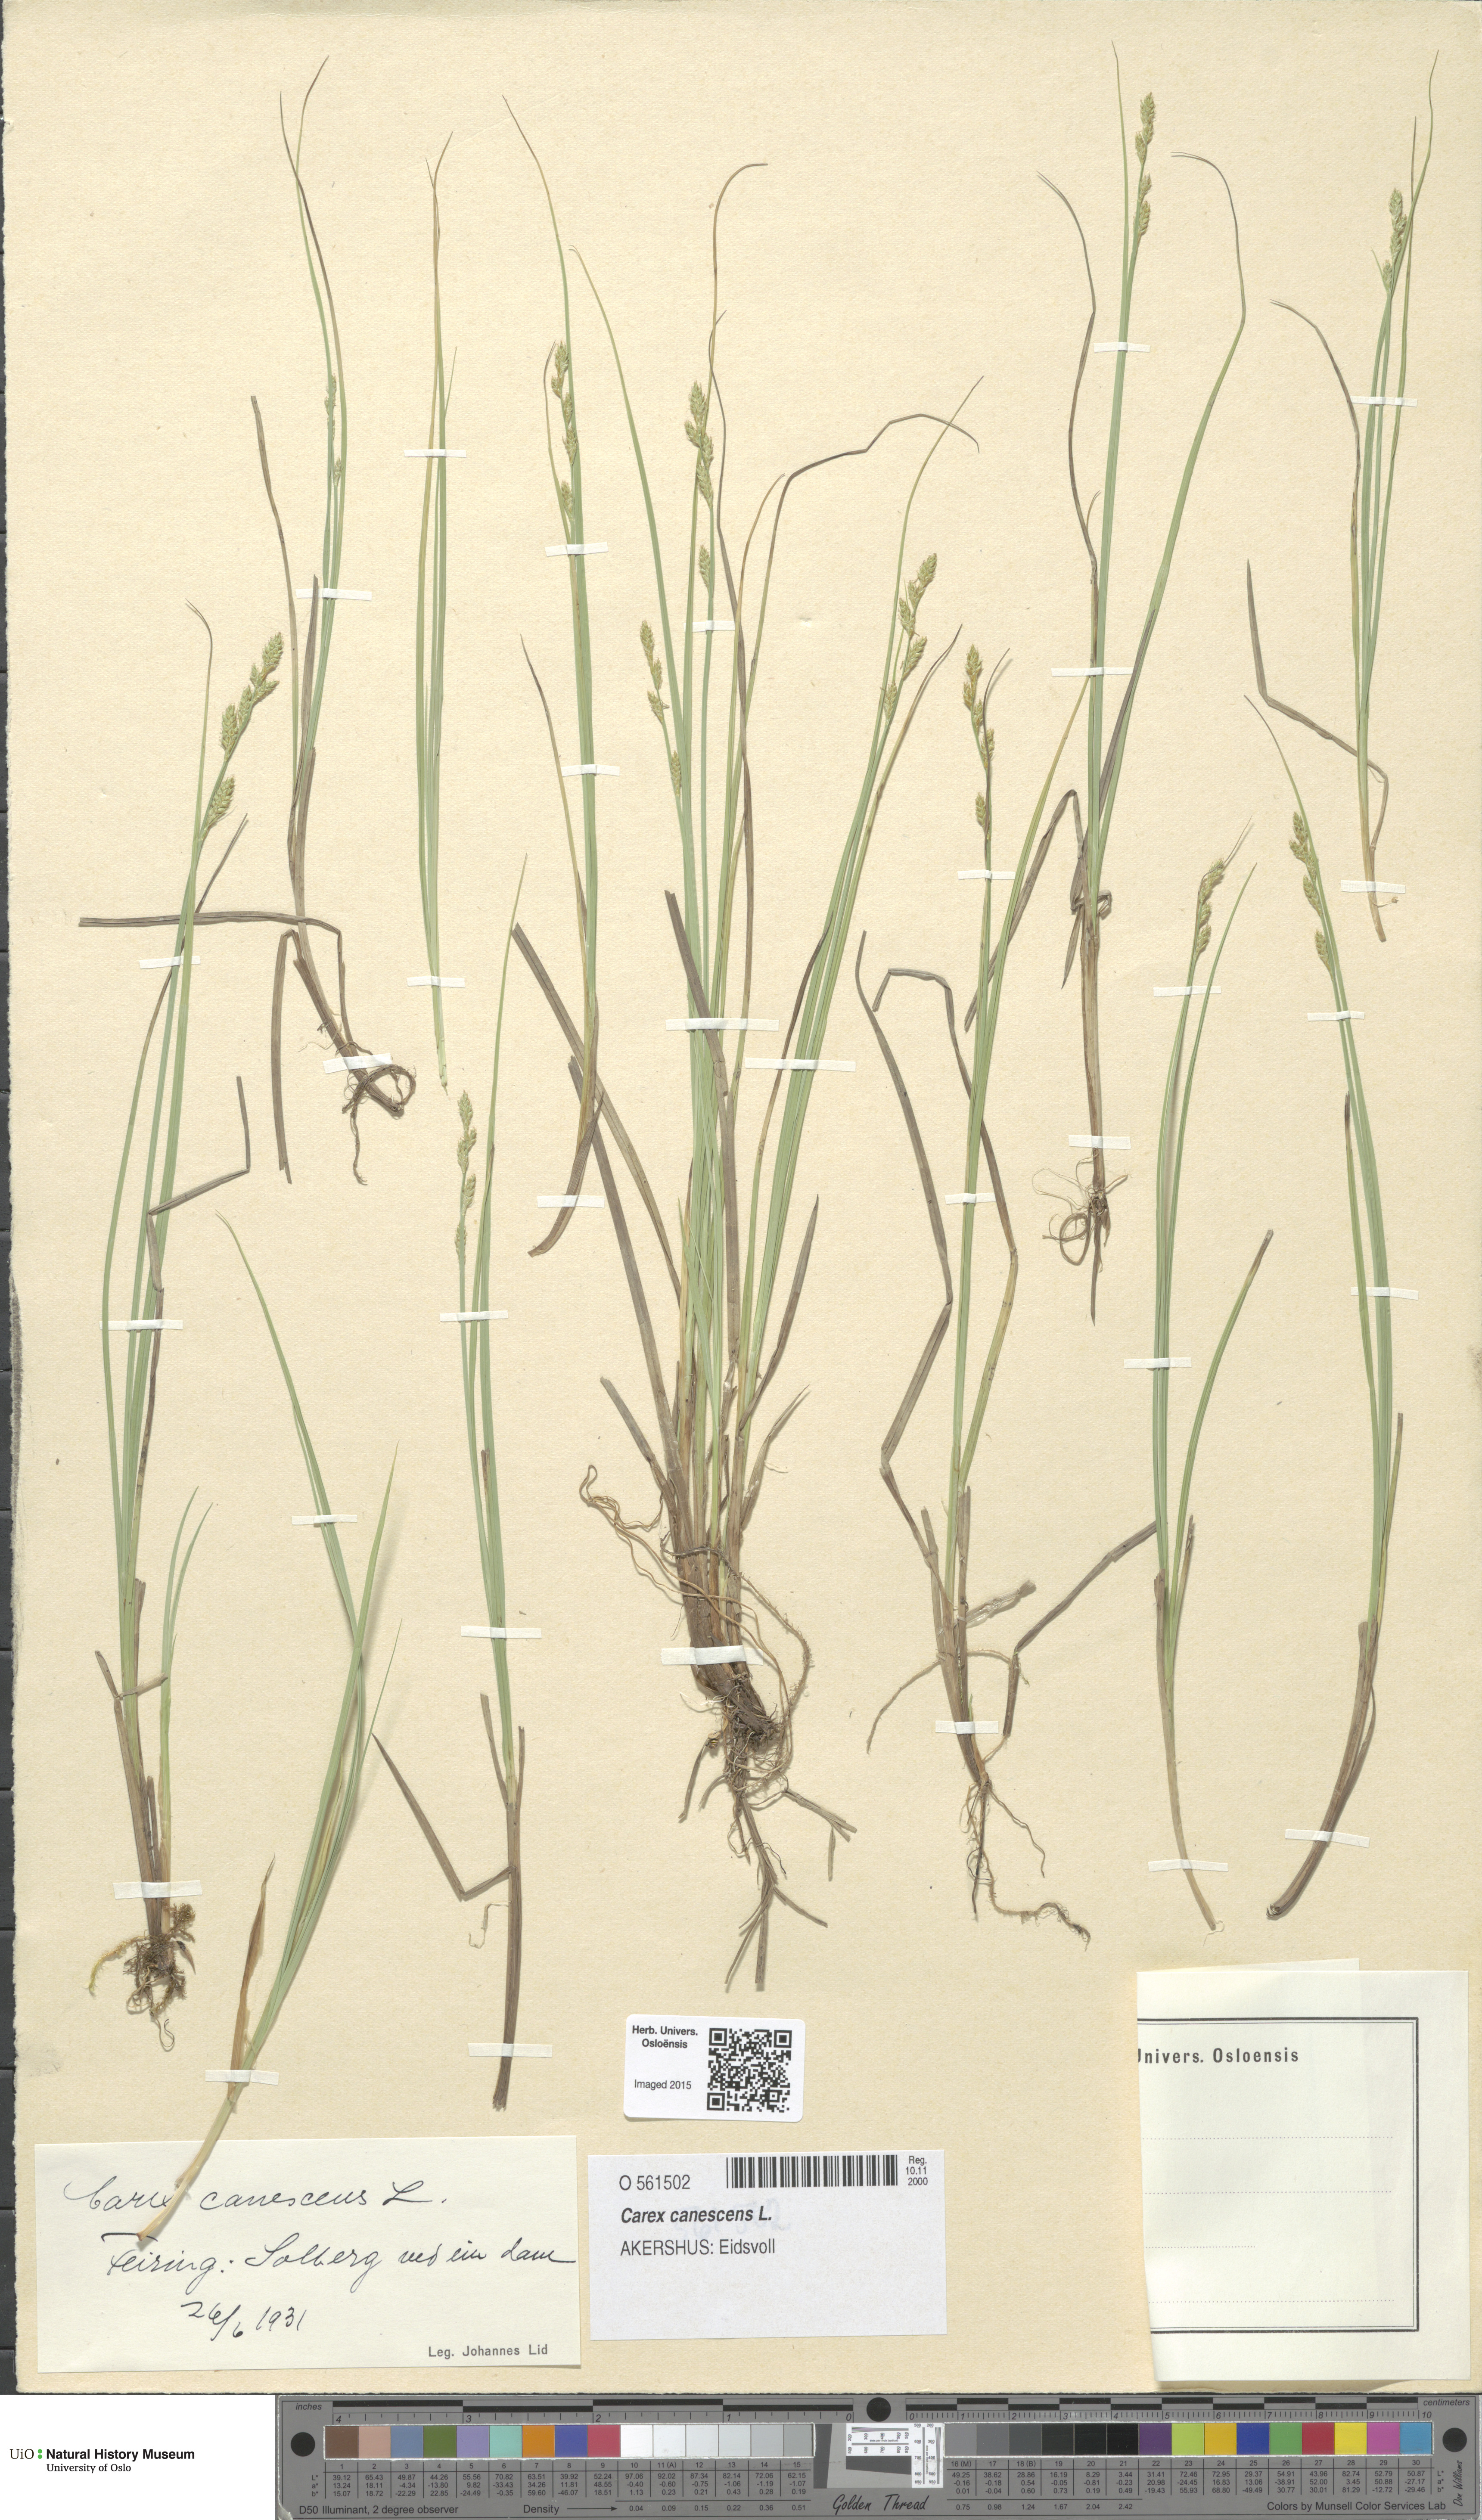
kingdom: Plantae
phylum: Tracheophyta
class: Liliopsida
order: Poales
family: Cyperaceae
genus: Carex
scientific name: Carex canescens
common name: White sedge
